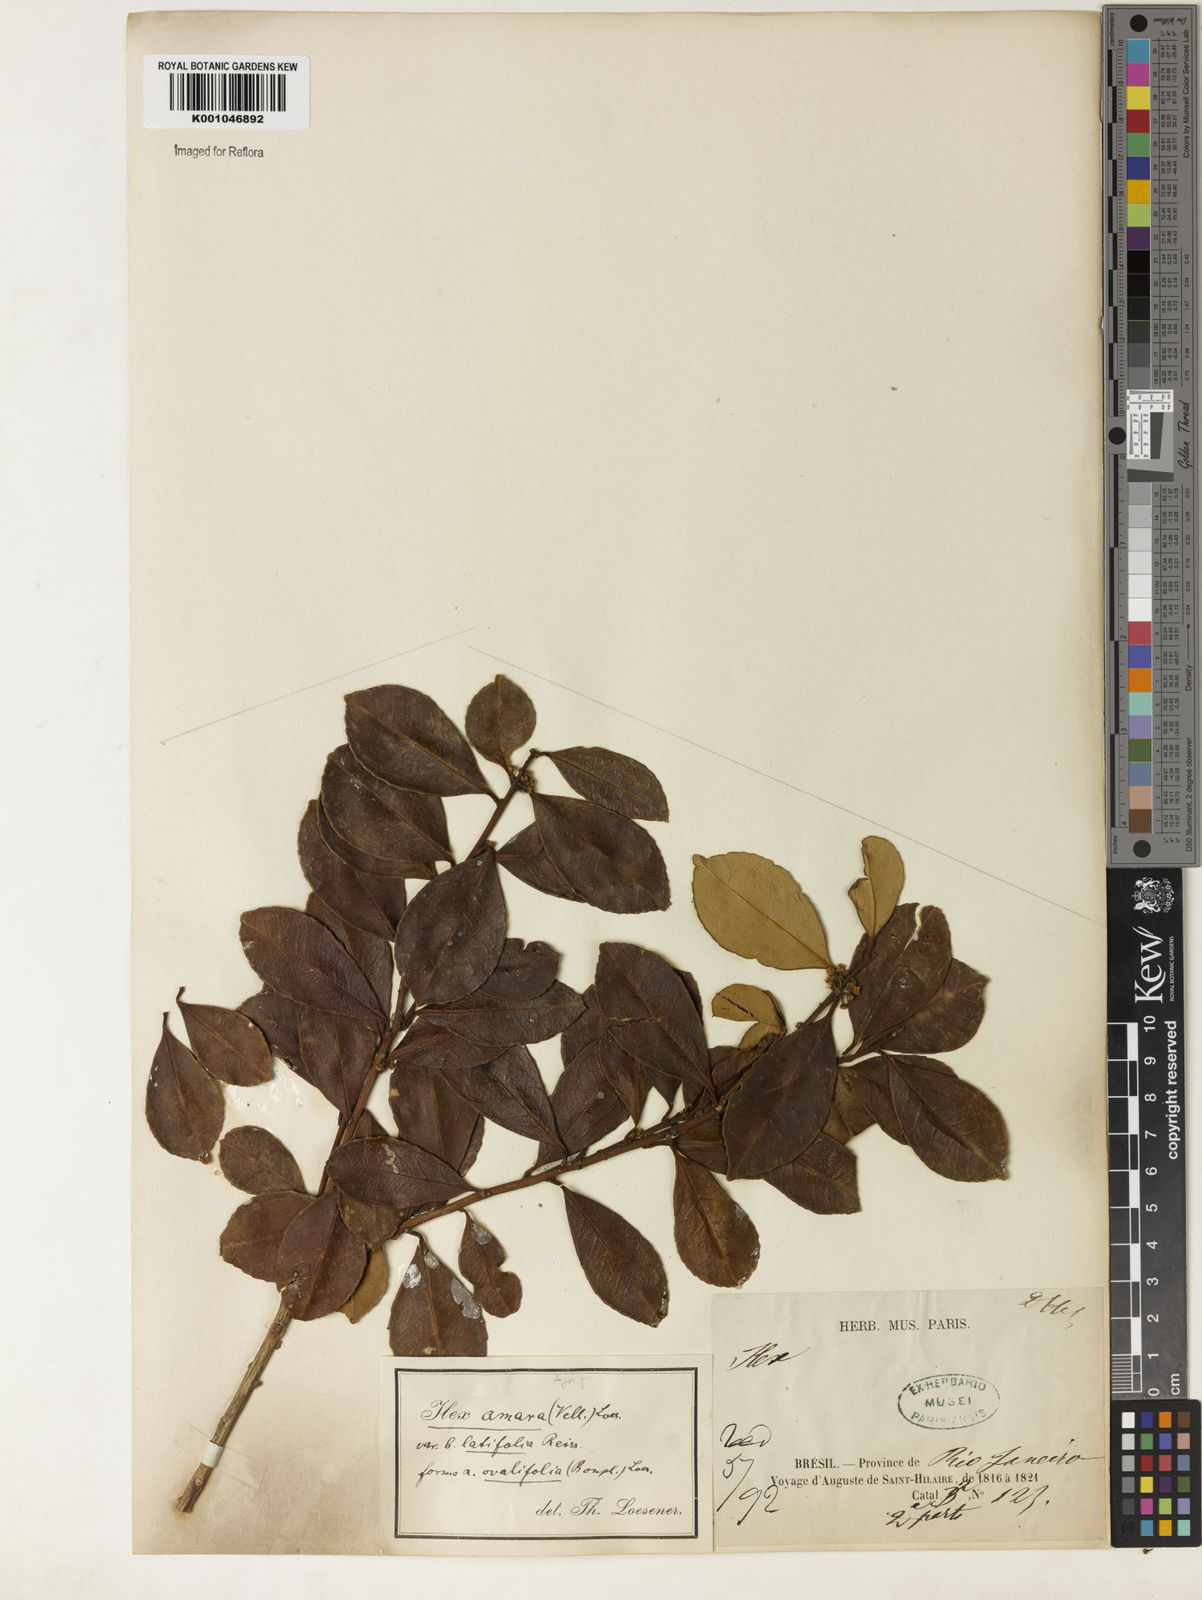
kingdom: Plantae
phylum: Tracheophyta
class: Magnoliopsida
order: Aquifoliales
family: Aquifoliaceae
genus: Ilex
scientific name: Ilex
